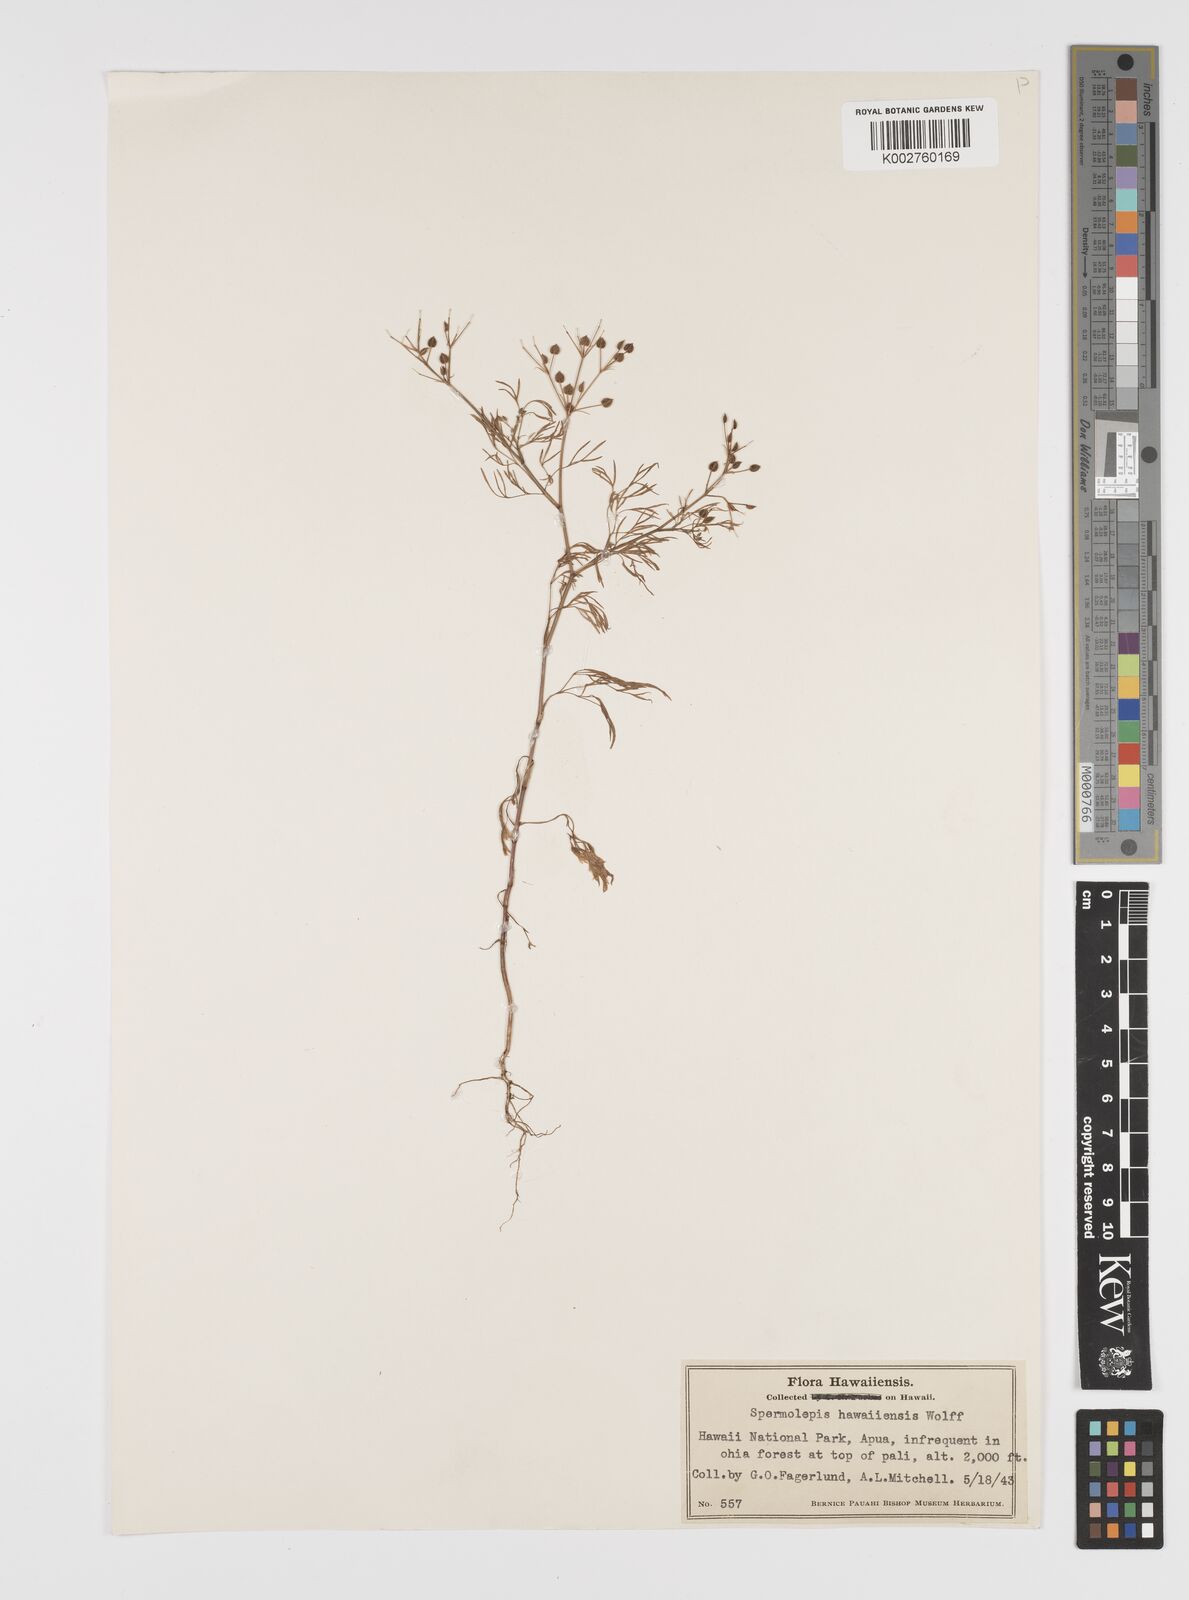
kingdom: Plantae
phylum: Tracheophyta
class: Magnoliopsida
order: Apiales
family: Apiaceae
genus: Spermolepis
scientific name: Spermolepis hawaiiensis
